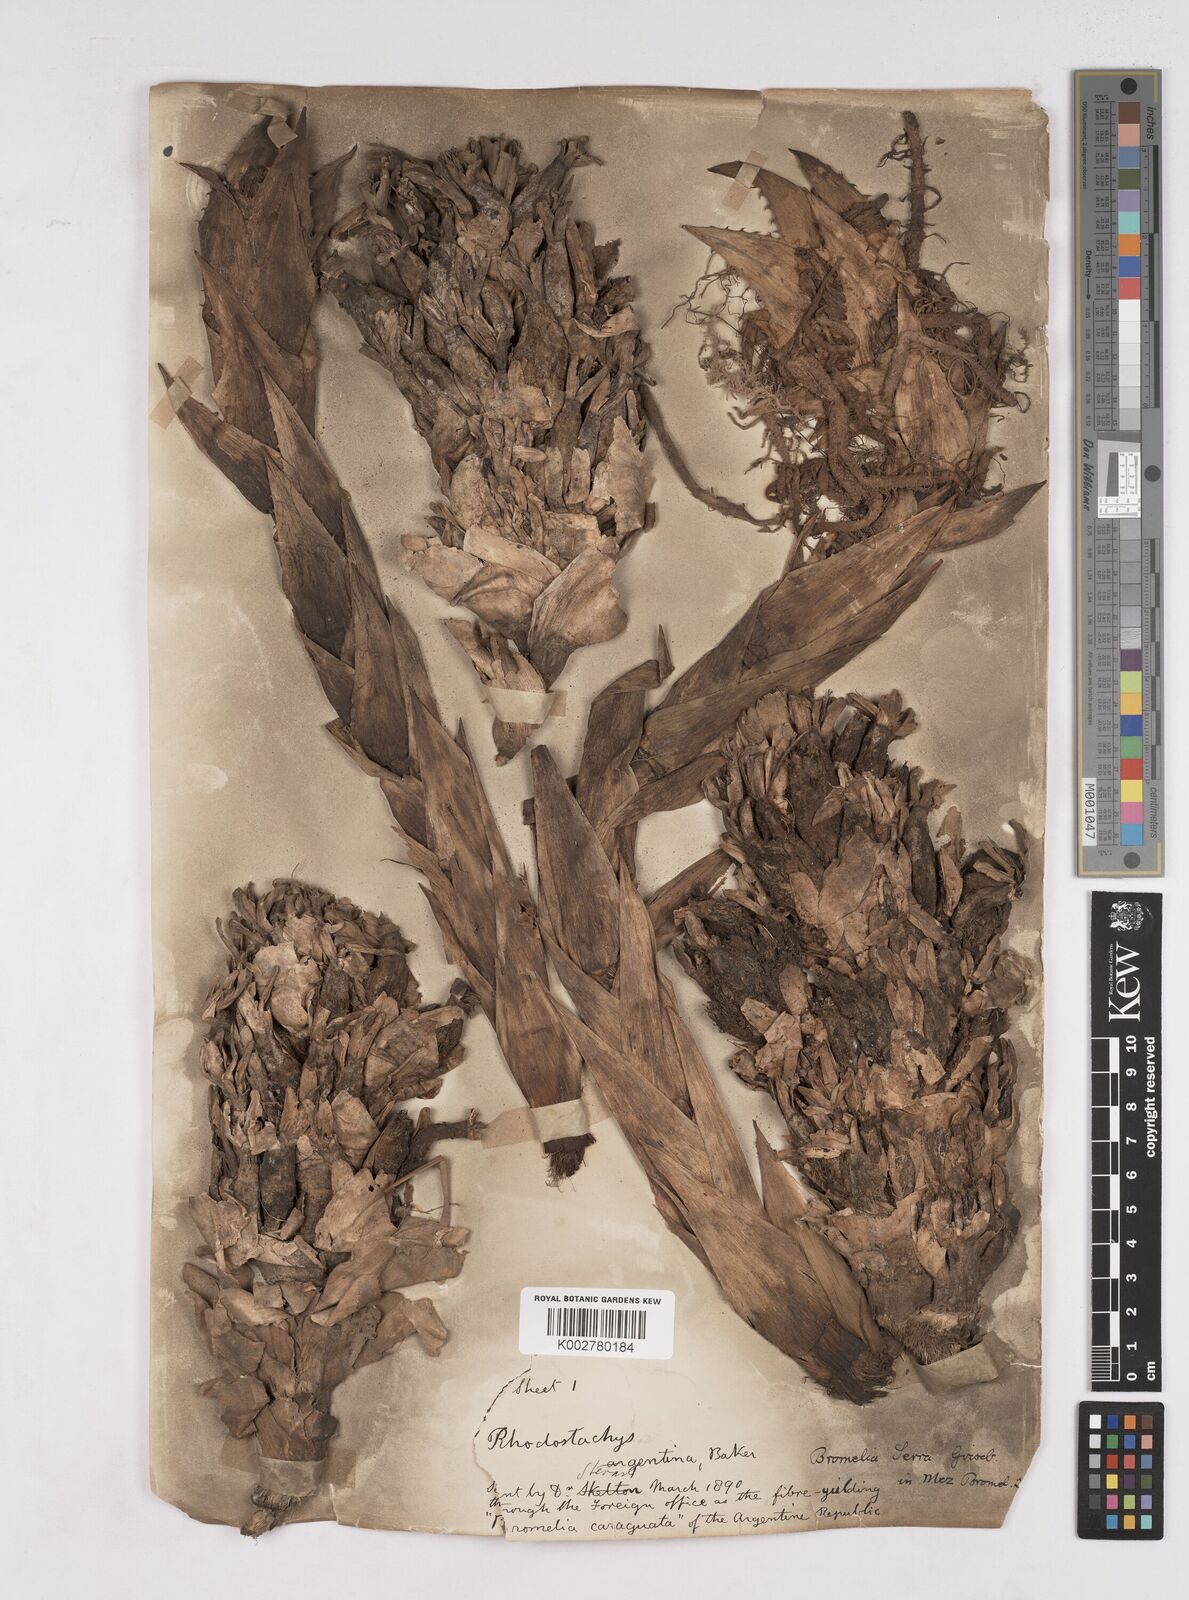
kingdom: Plantae
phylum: Tracheophyta
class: Liliopsida
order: Poales
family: Bromeliaceae
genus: Bromelia
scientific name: Bromelia serra
